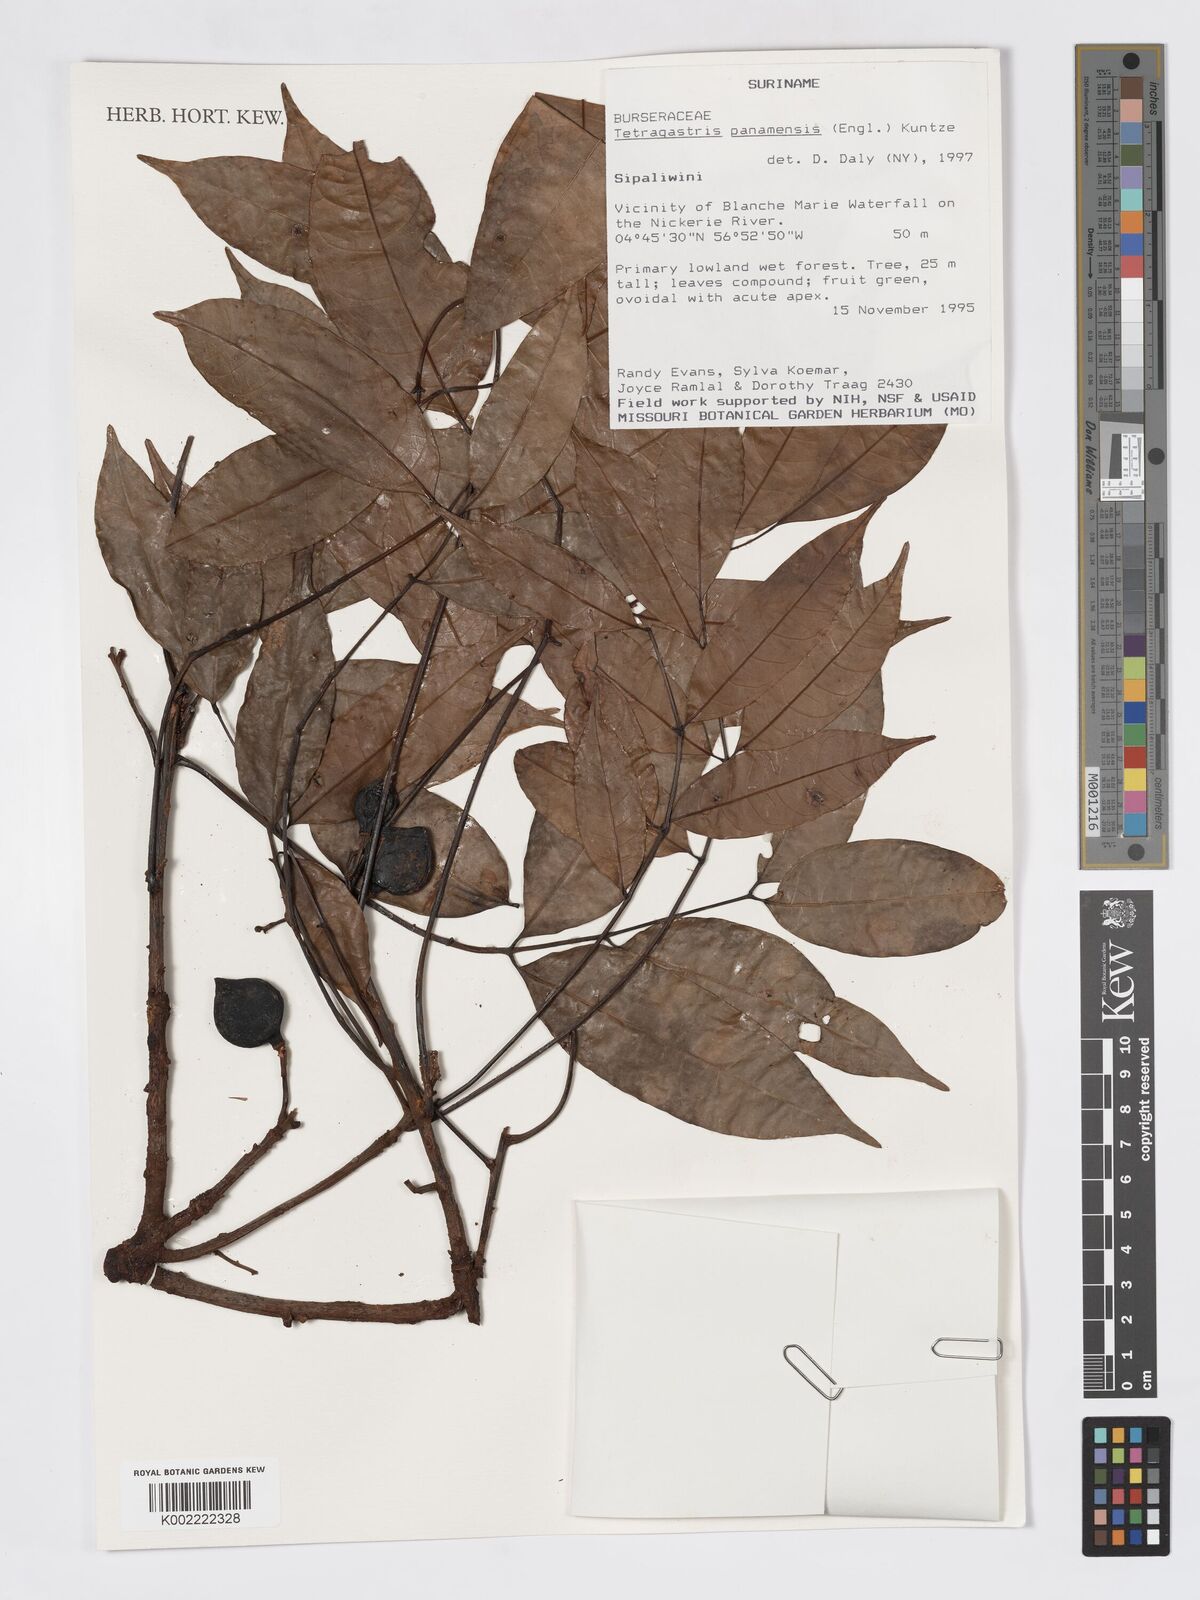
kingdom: Plantae
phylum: Tracheophyta
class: Magnoliopsida
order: Sapindales
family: Burseraceae
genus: Tetragastris
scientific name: Tetragastris panamensis
